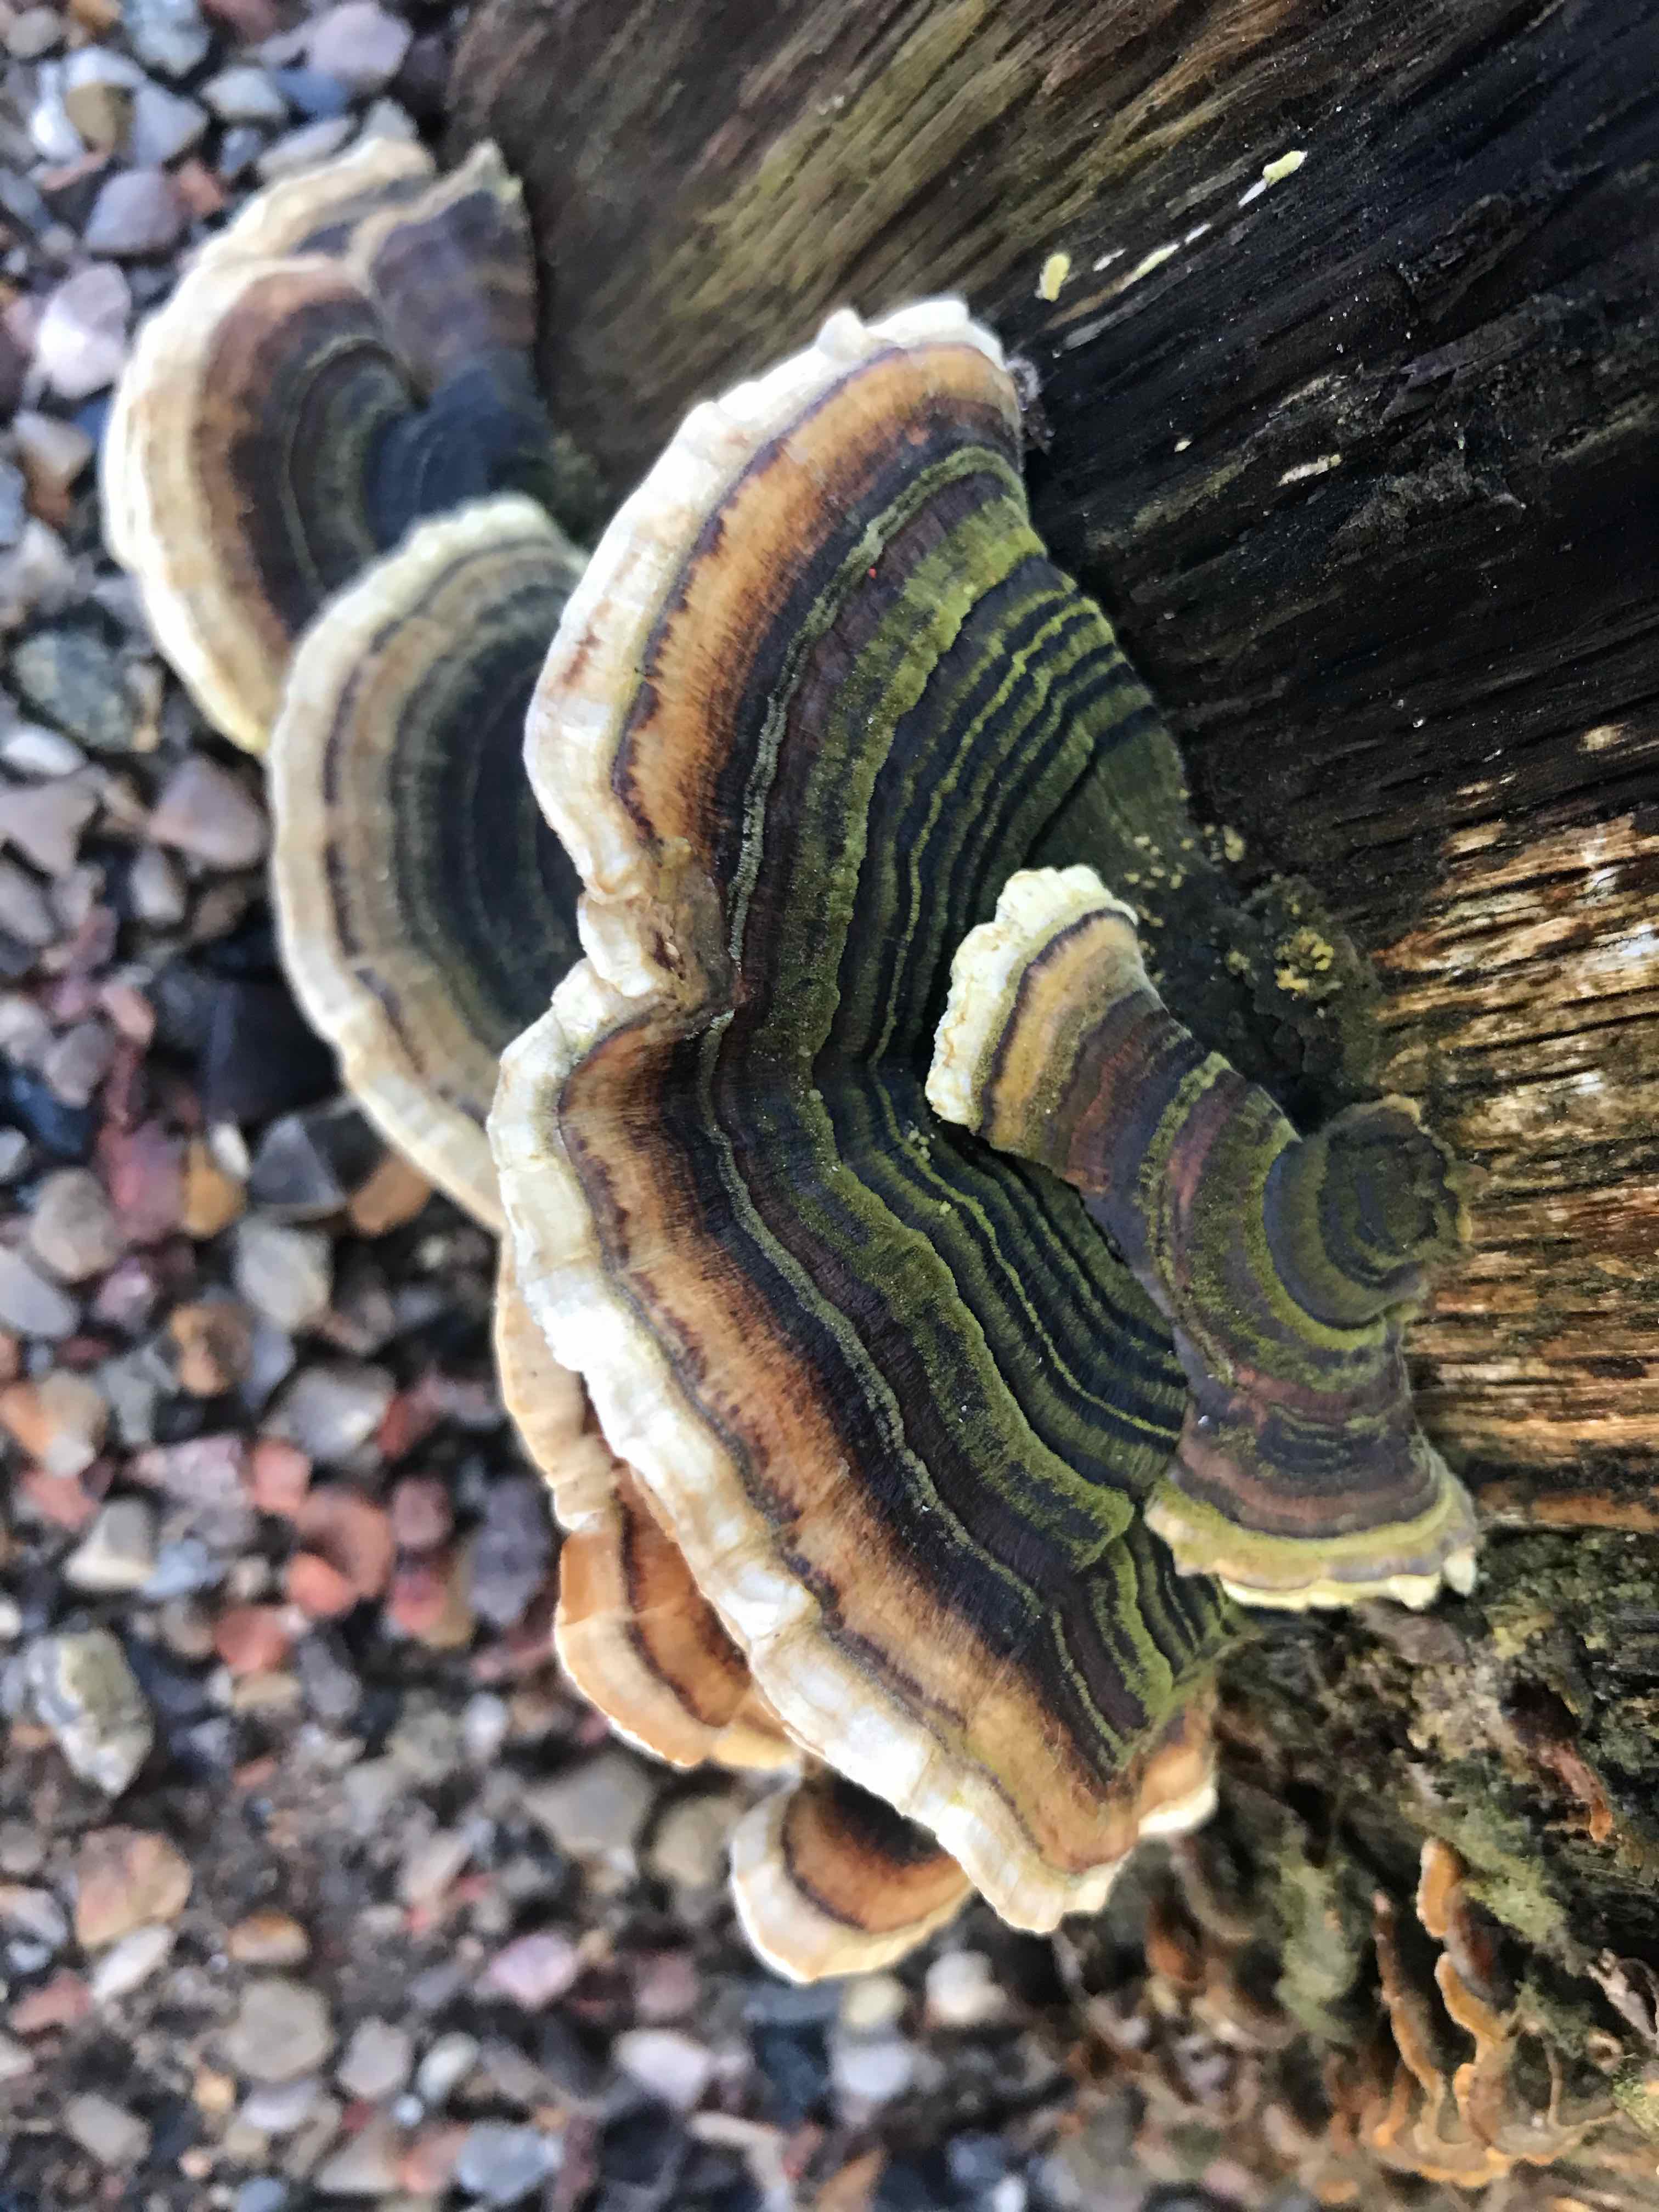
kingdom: Fungi
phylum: Basidiomycota
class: Agaricomycetes
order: Polyporales
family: Polyporaceae
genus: Trametes
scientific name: Trametes versicolor
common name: broget læderporesvamp
